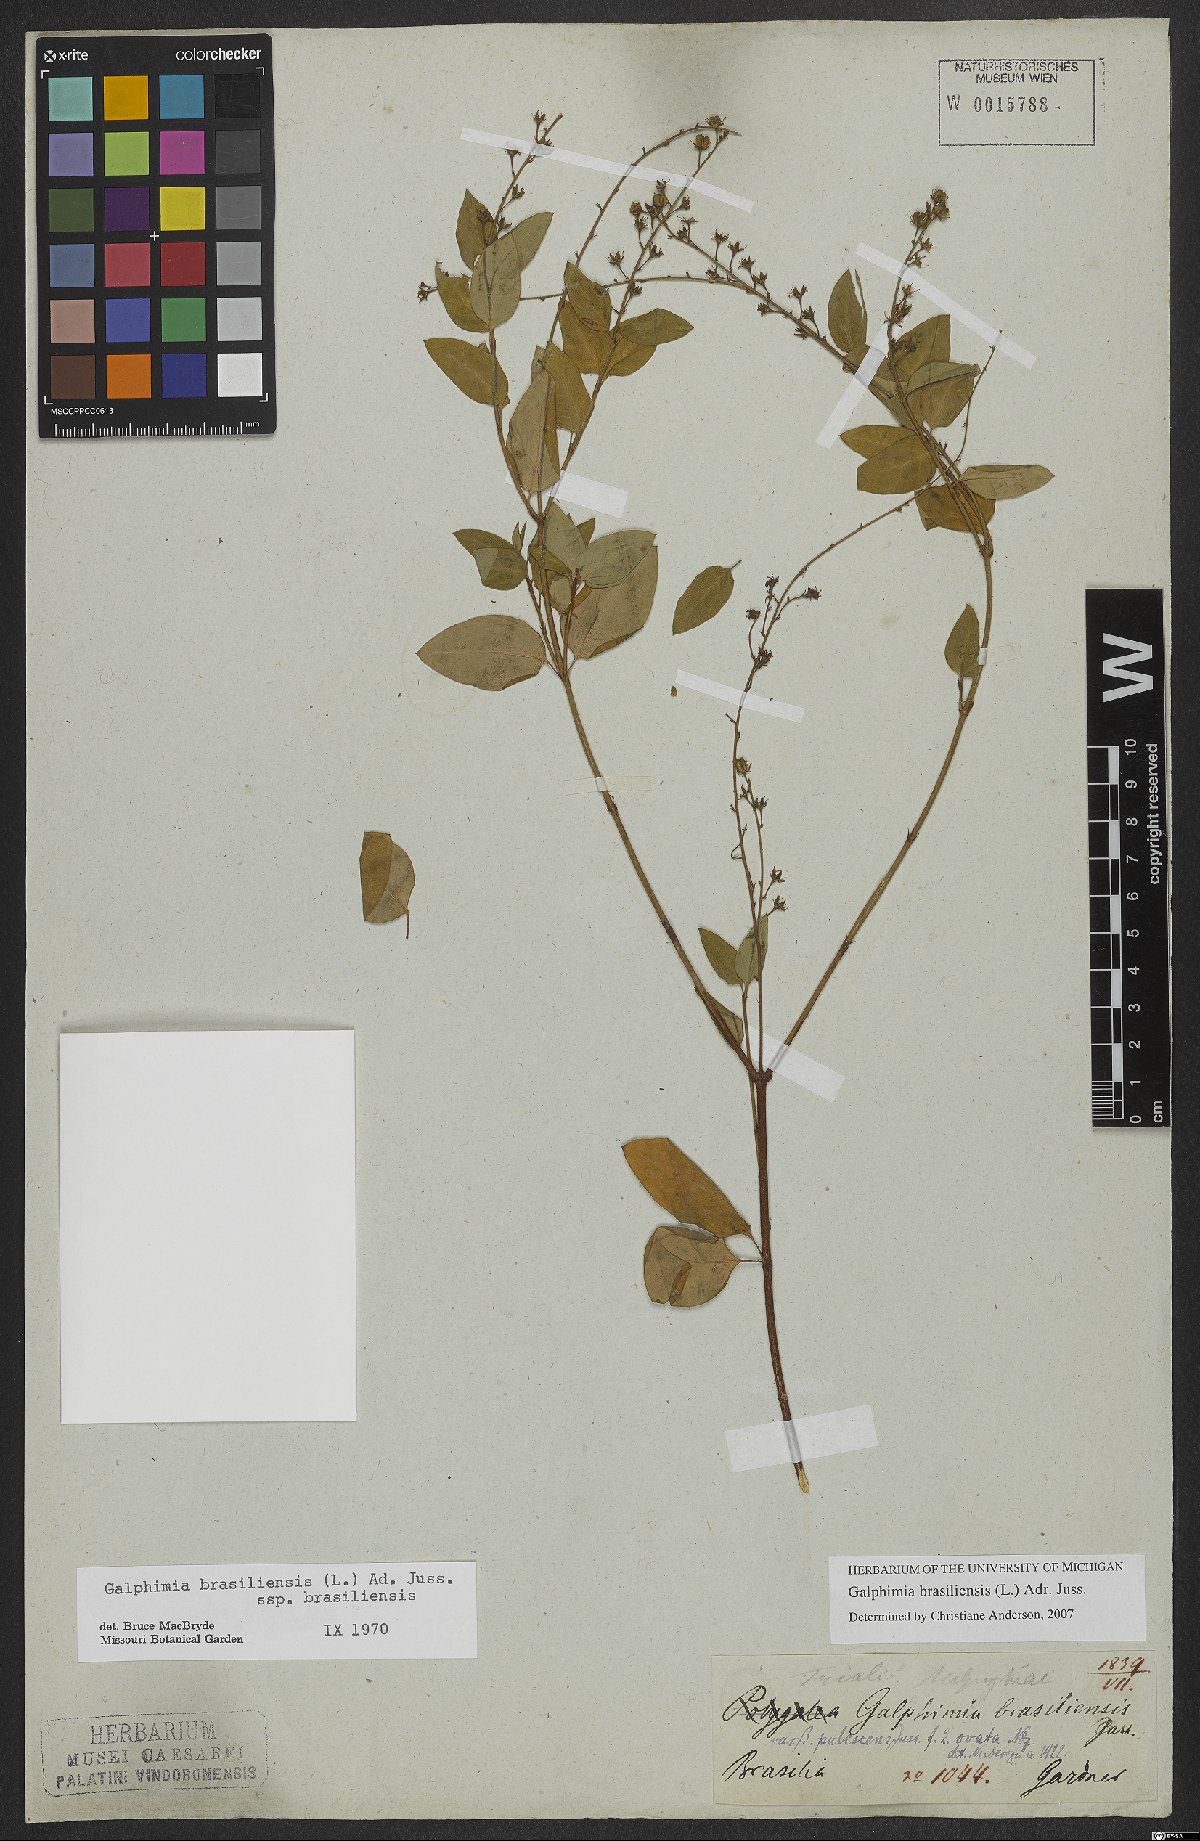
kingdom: Plantae
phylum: Tracheophyta
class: Magnoliopsida
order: Malpighiales
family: Malpighiaceae
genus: Galphimia
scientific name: Galphimia brasiliensis
